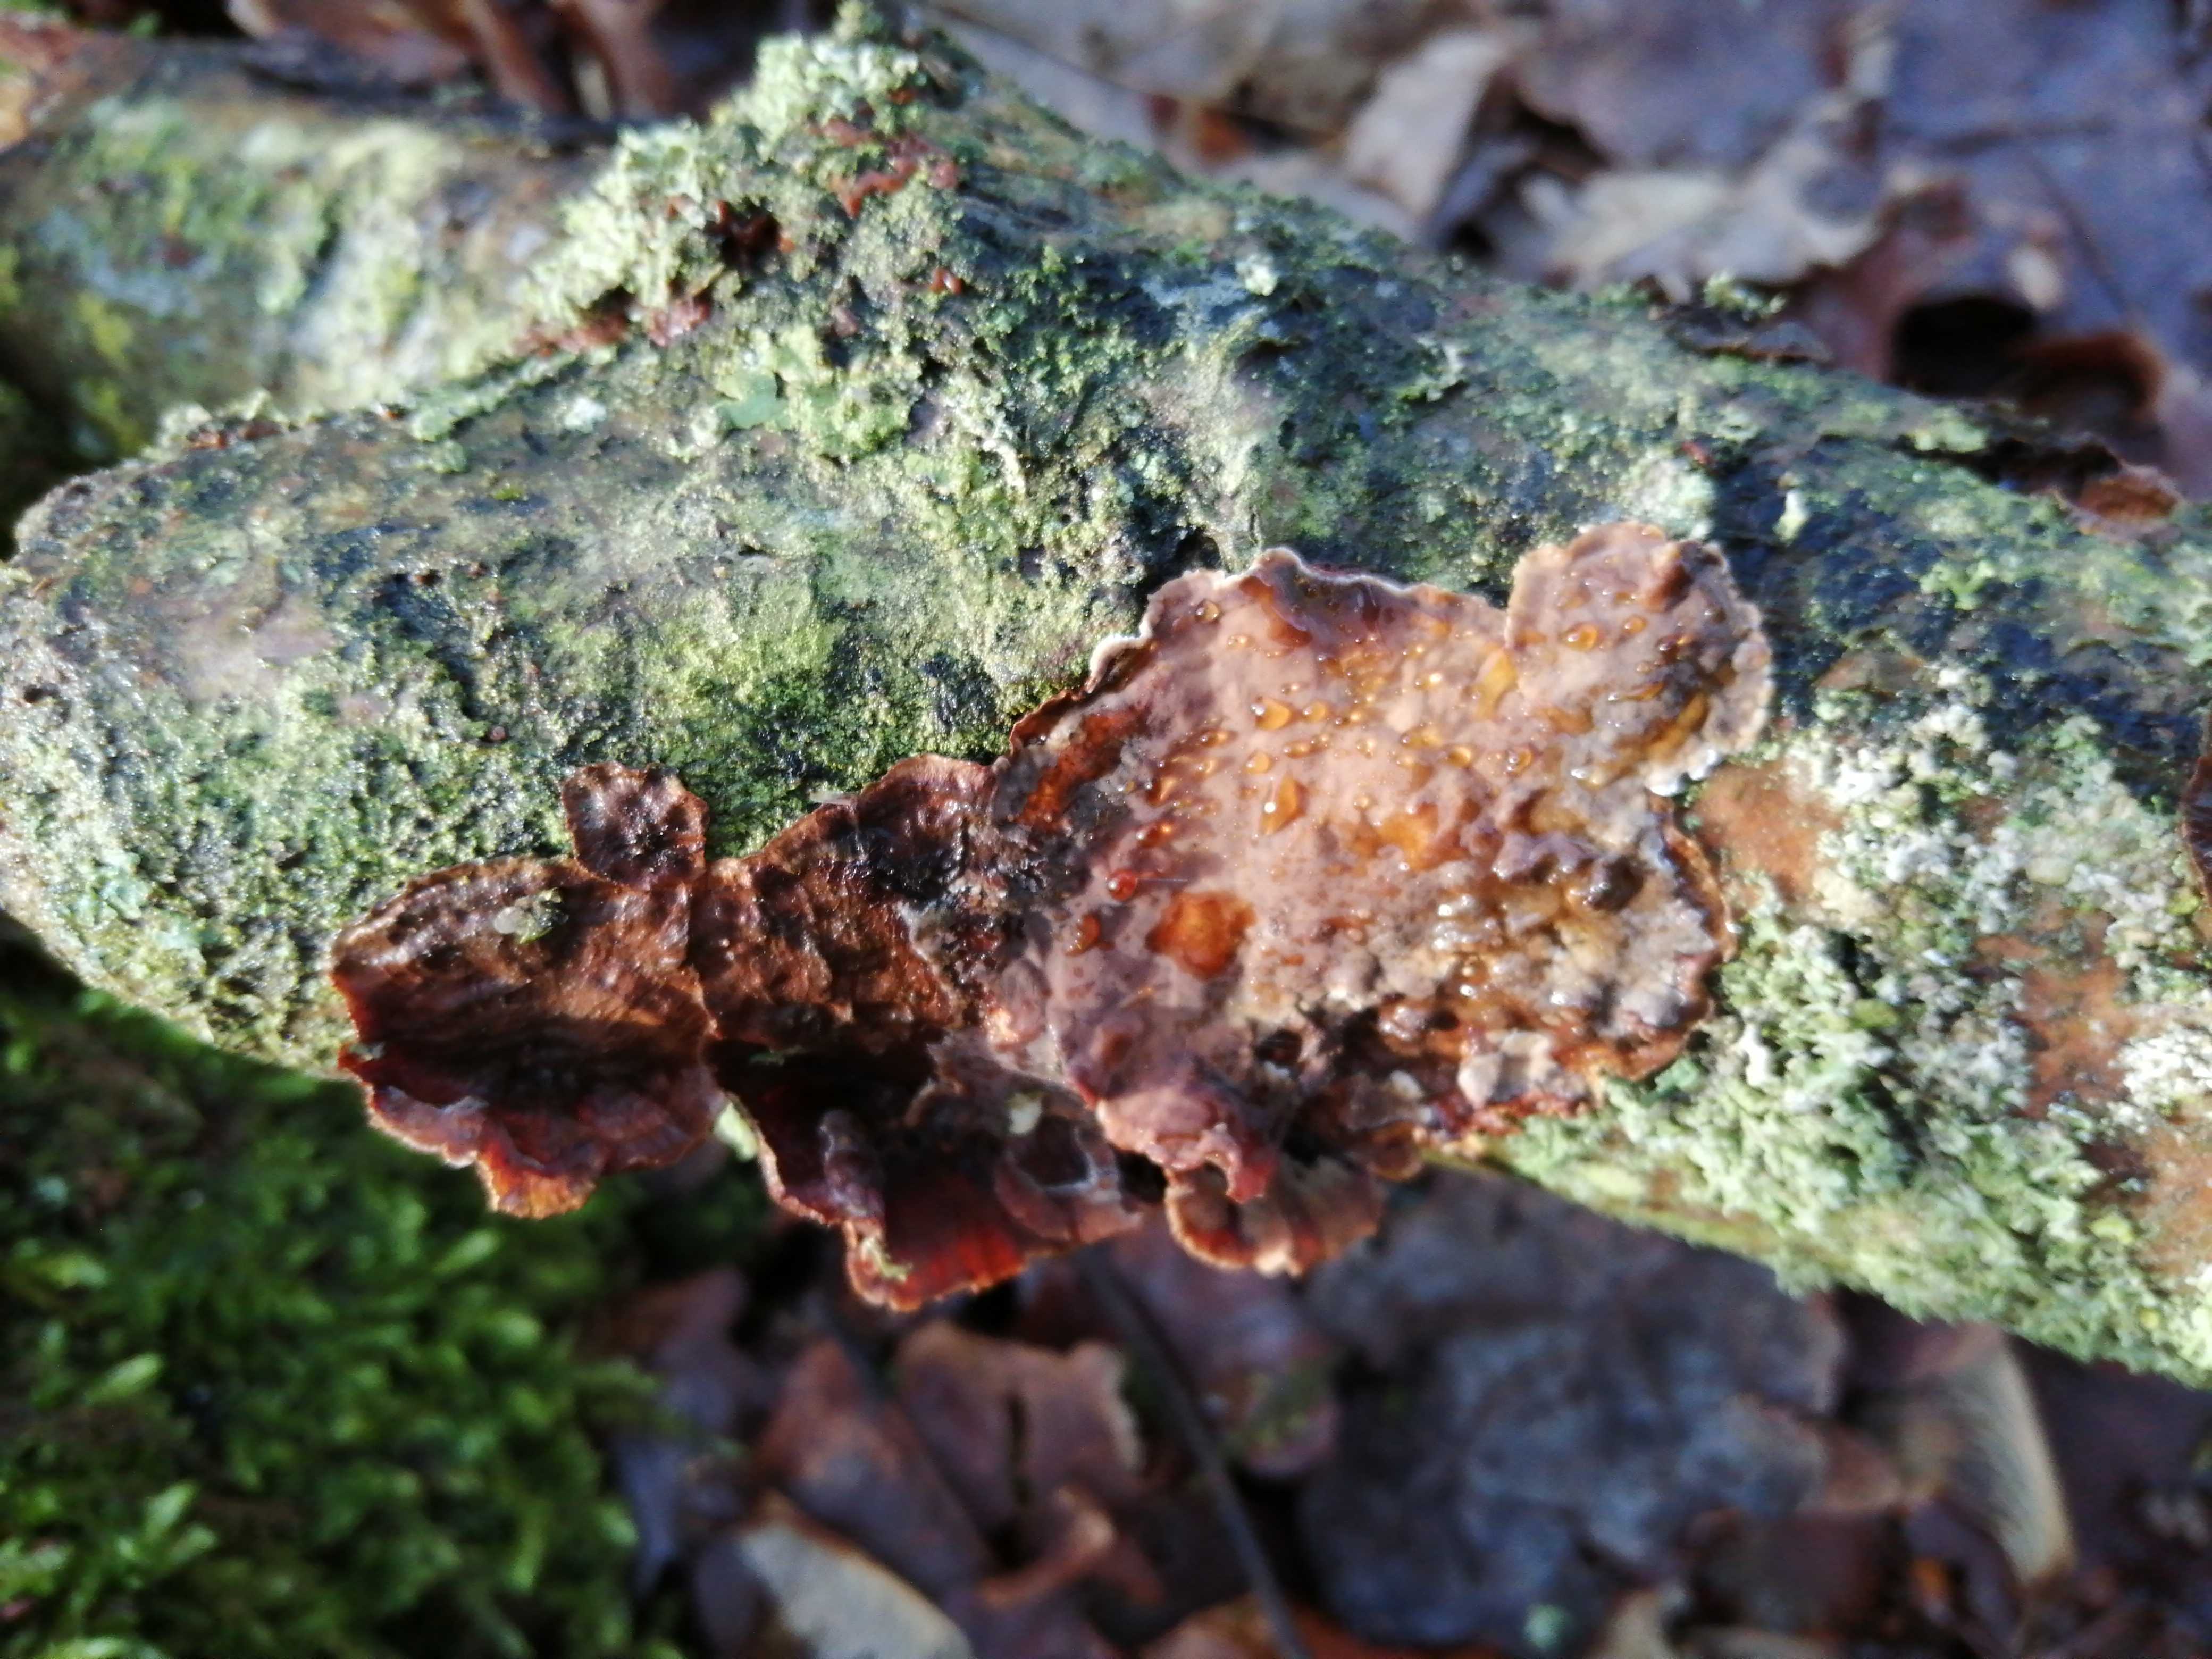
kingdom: Fungi
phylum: Basidiomycota
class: Agaricomycetes
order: Russulales
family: Stereaceae
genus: Stereum
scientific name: Stereum
